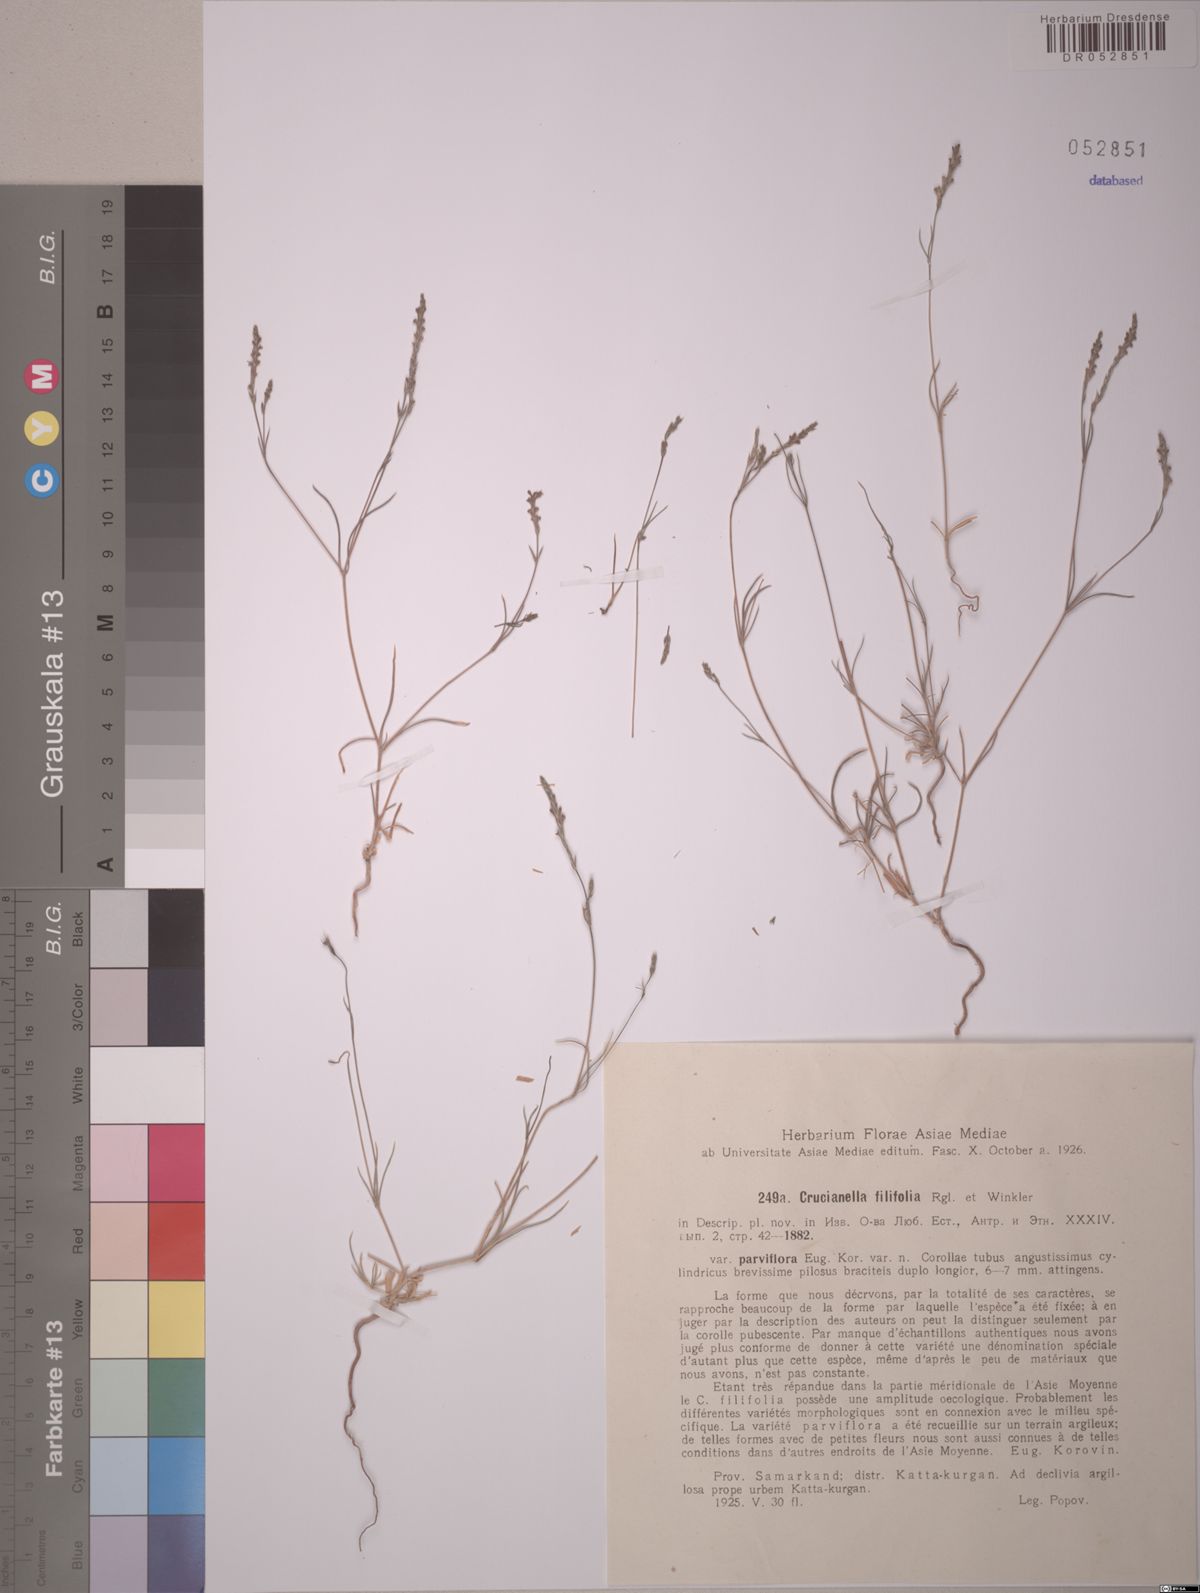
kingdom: Plantae
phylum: Tracheophyta
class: Magnoliopsida
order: Gentianales
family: Rubiaceae
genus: Crucianella
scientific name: Crucianella filifolia
